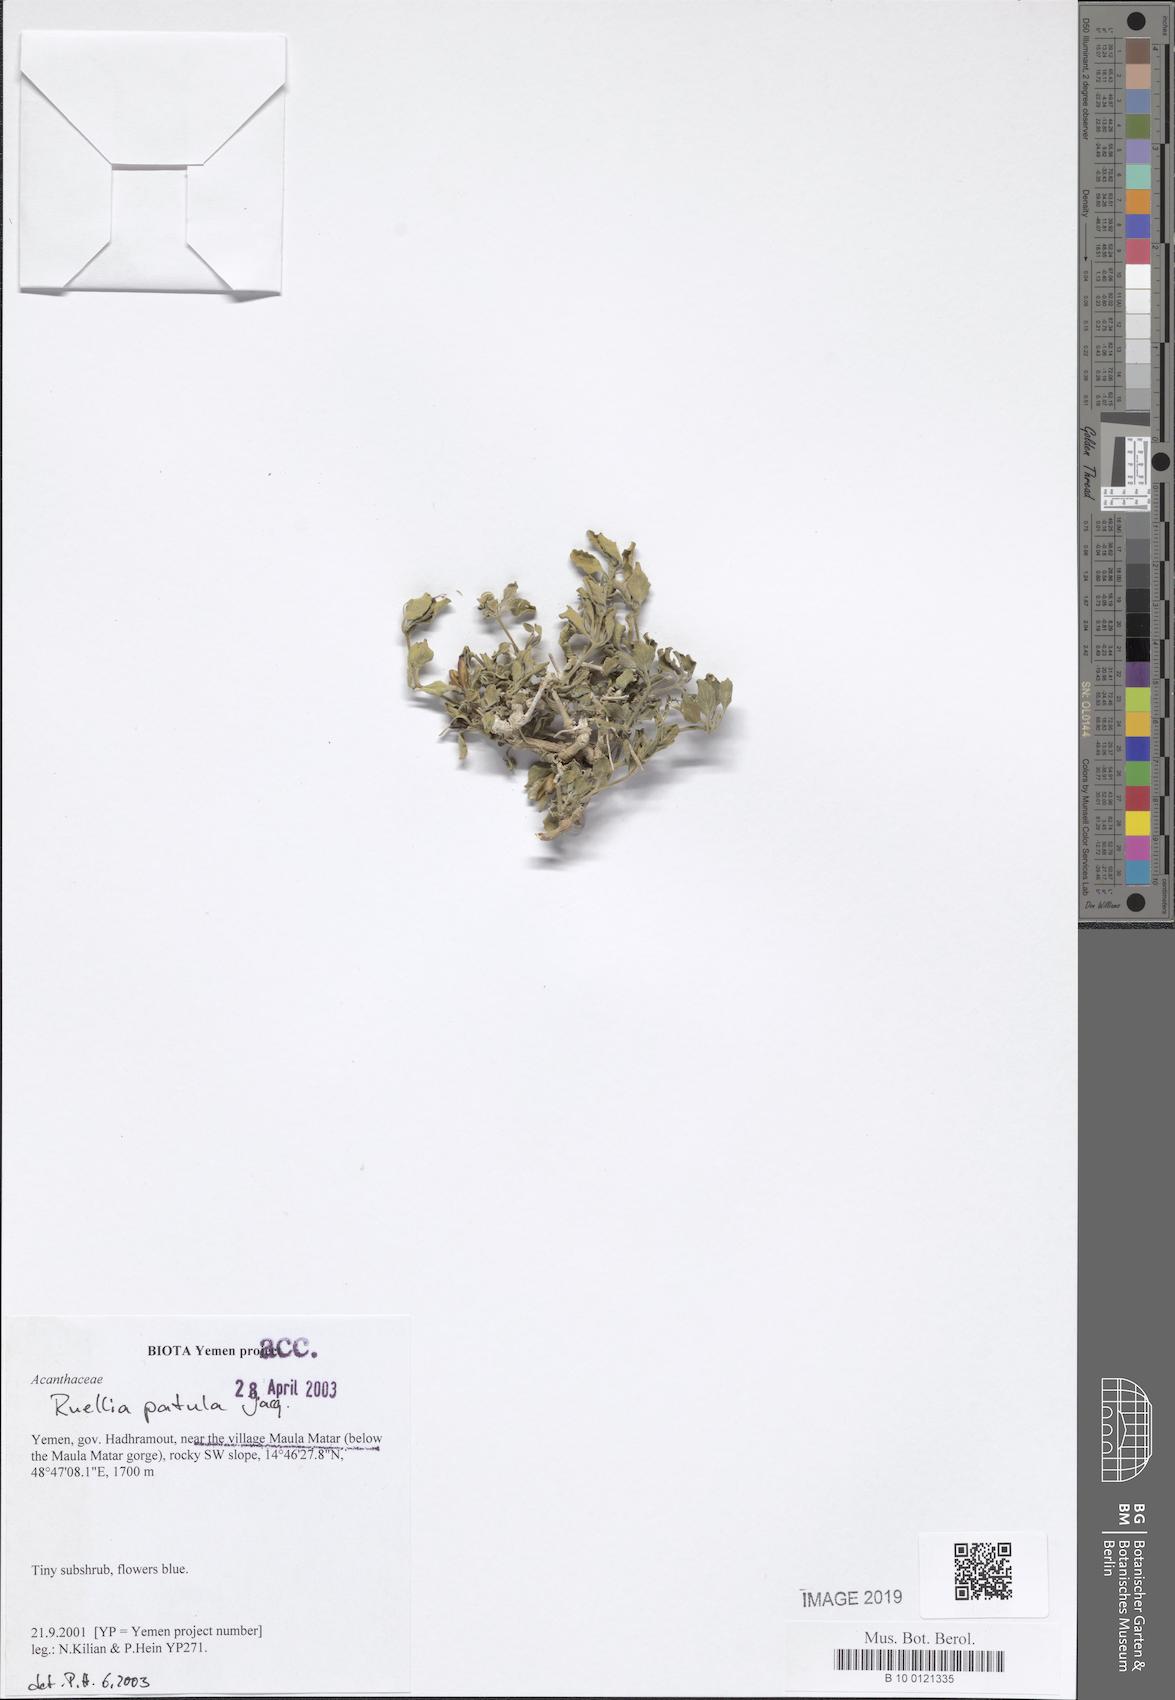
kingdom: Plantae
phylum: Tracheophyta
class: Magnoliopsida
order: Lamiales
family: Acanthaceae
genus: Ruellia
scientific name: Ruellia patula
